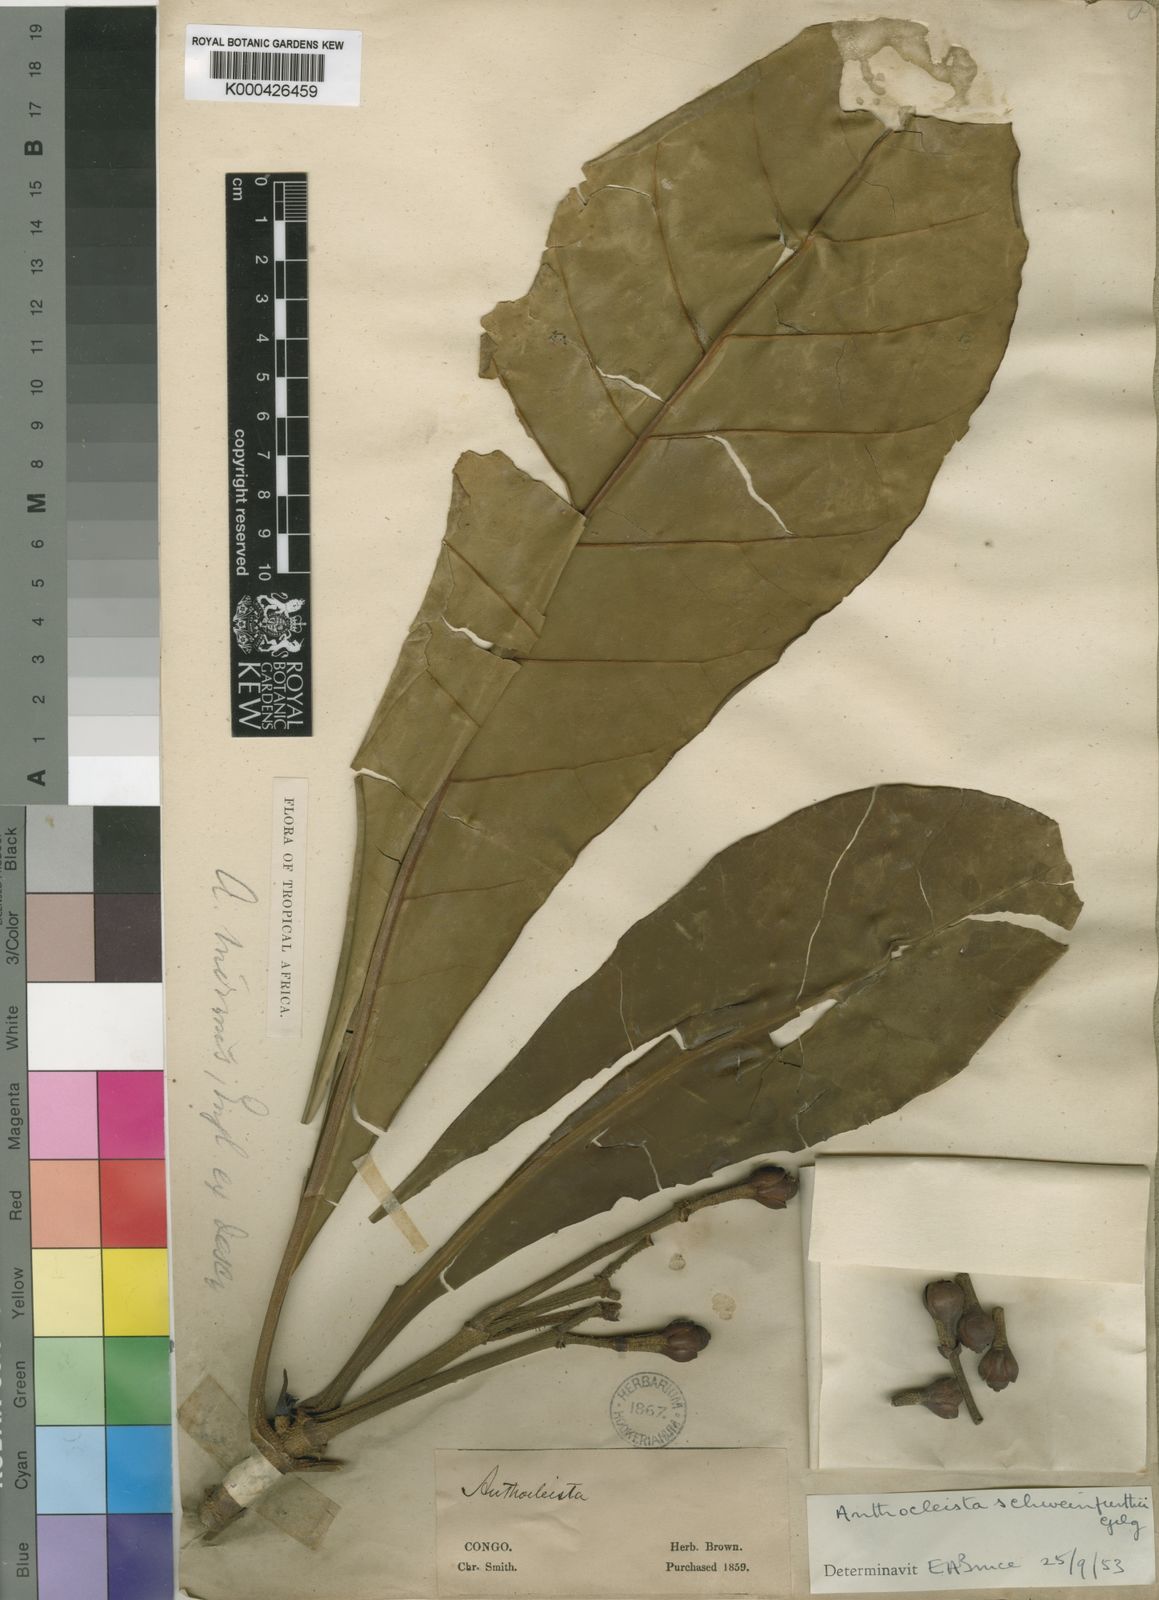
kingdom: Plantae
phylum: Tracheophyta
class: Magnoliopsida
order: Gentianales
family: Gentianaceae
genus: Anthocleista
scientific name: Anthocleista schweinfurthii
